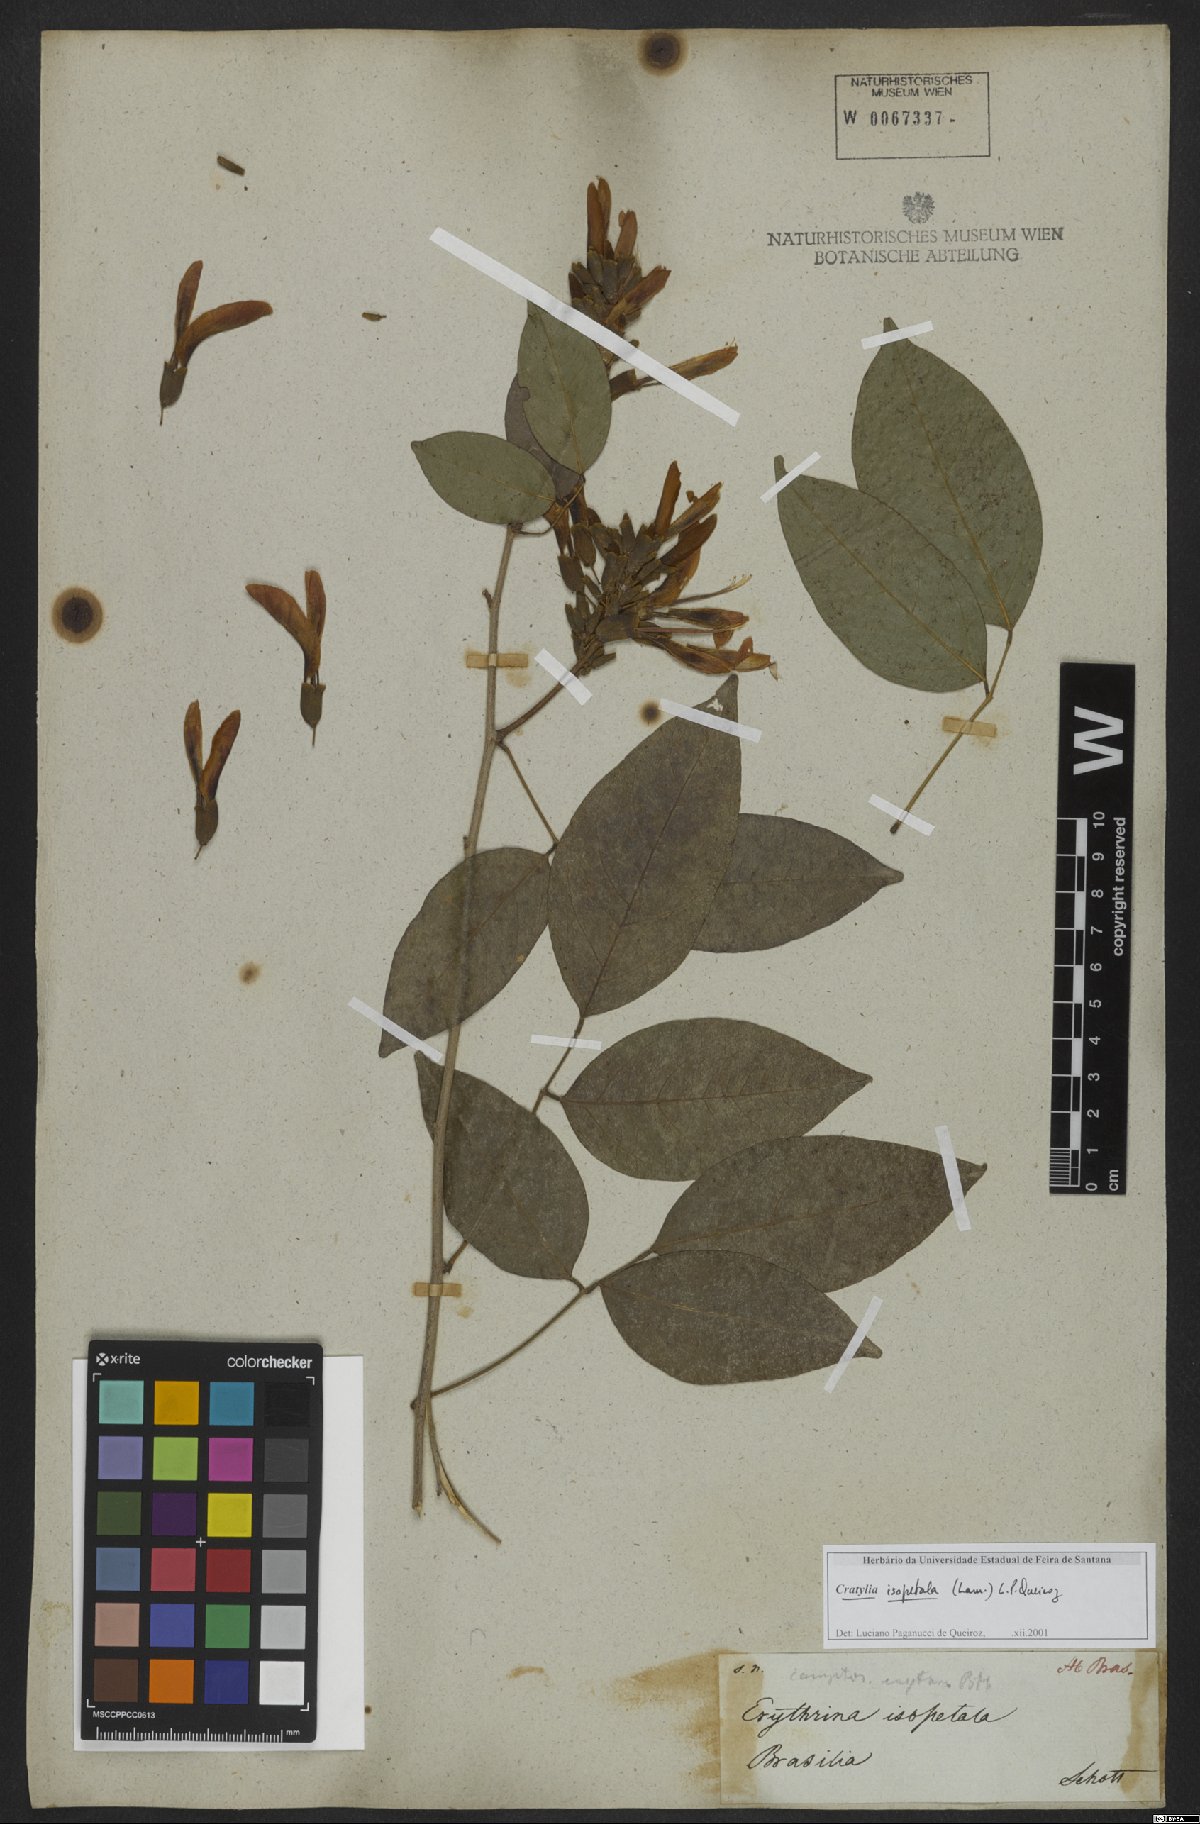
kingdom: Plantae
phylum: Tracheophyta
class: Magnoliopsida
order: Fabales
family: Fabaceae
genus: Cratylia
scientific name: Cratylia isopetala
